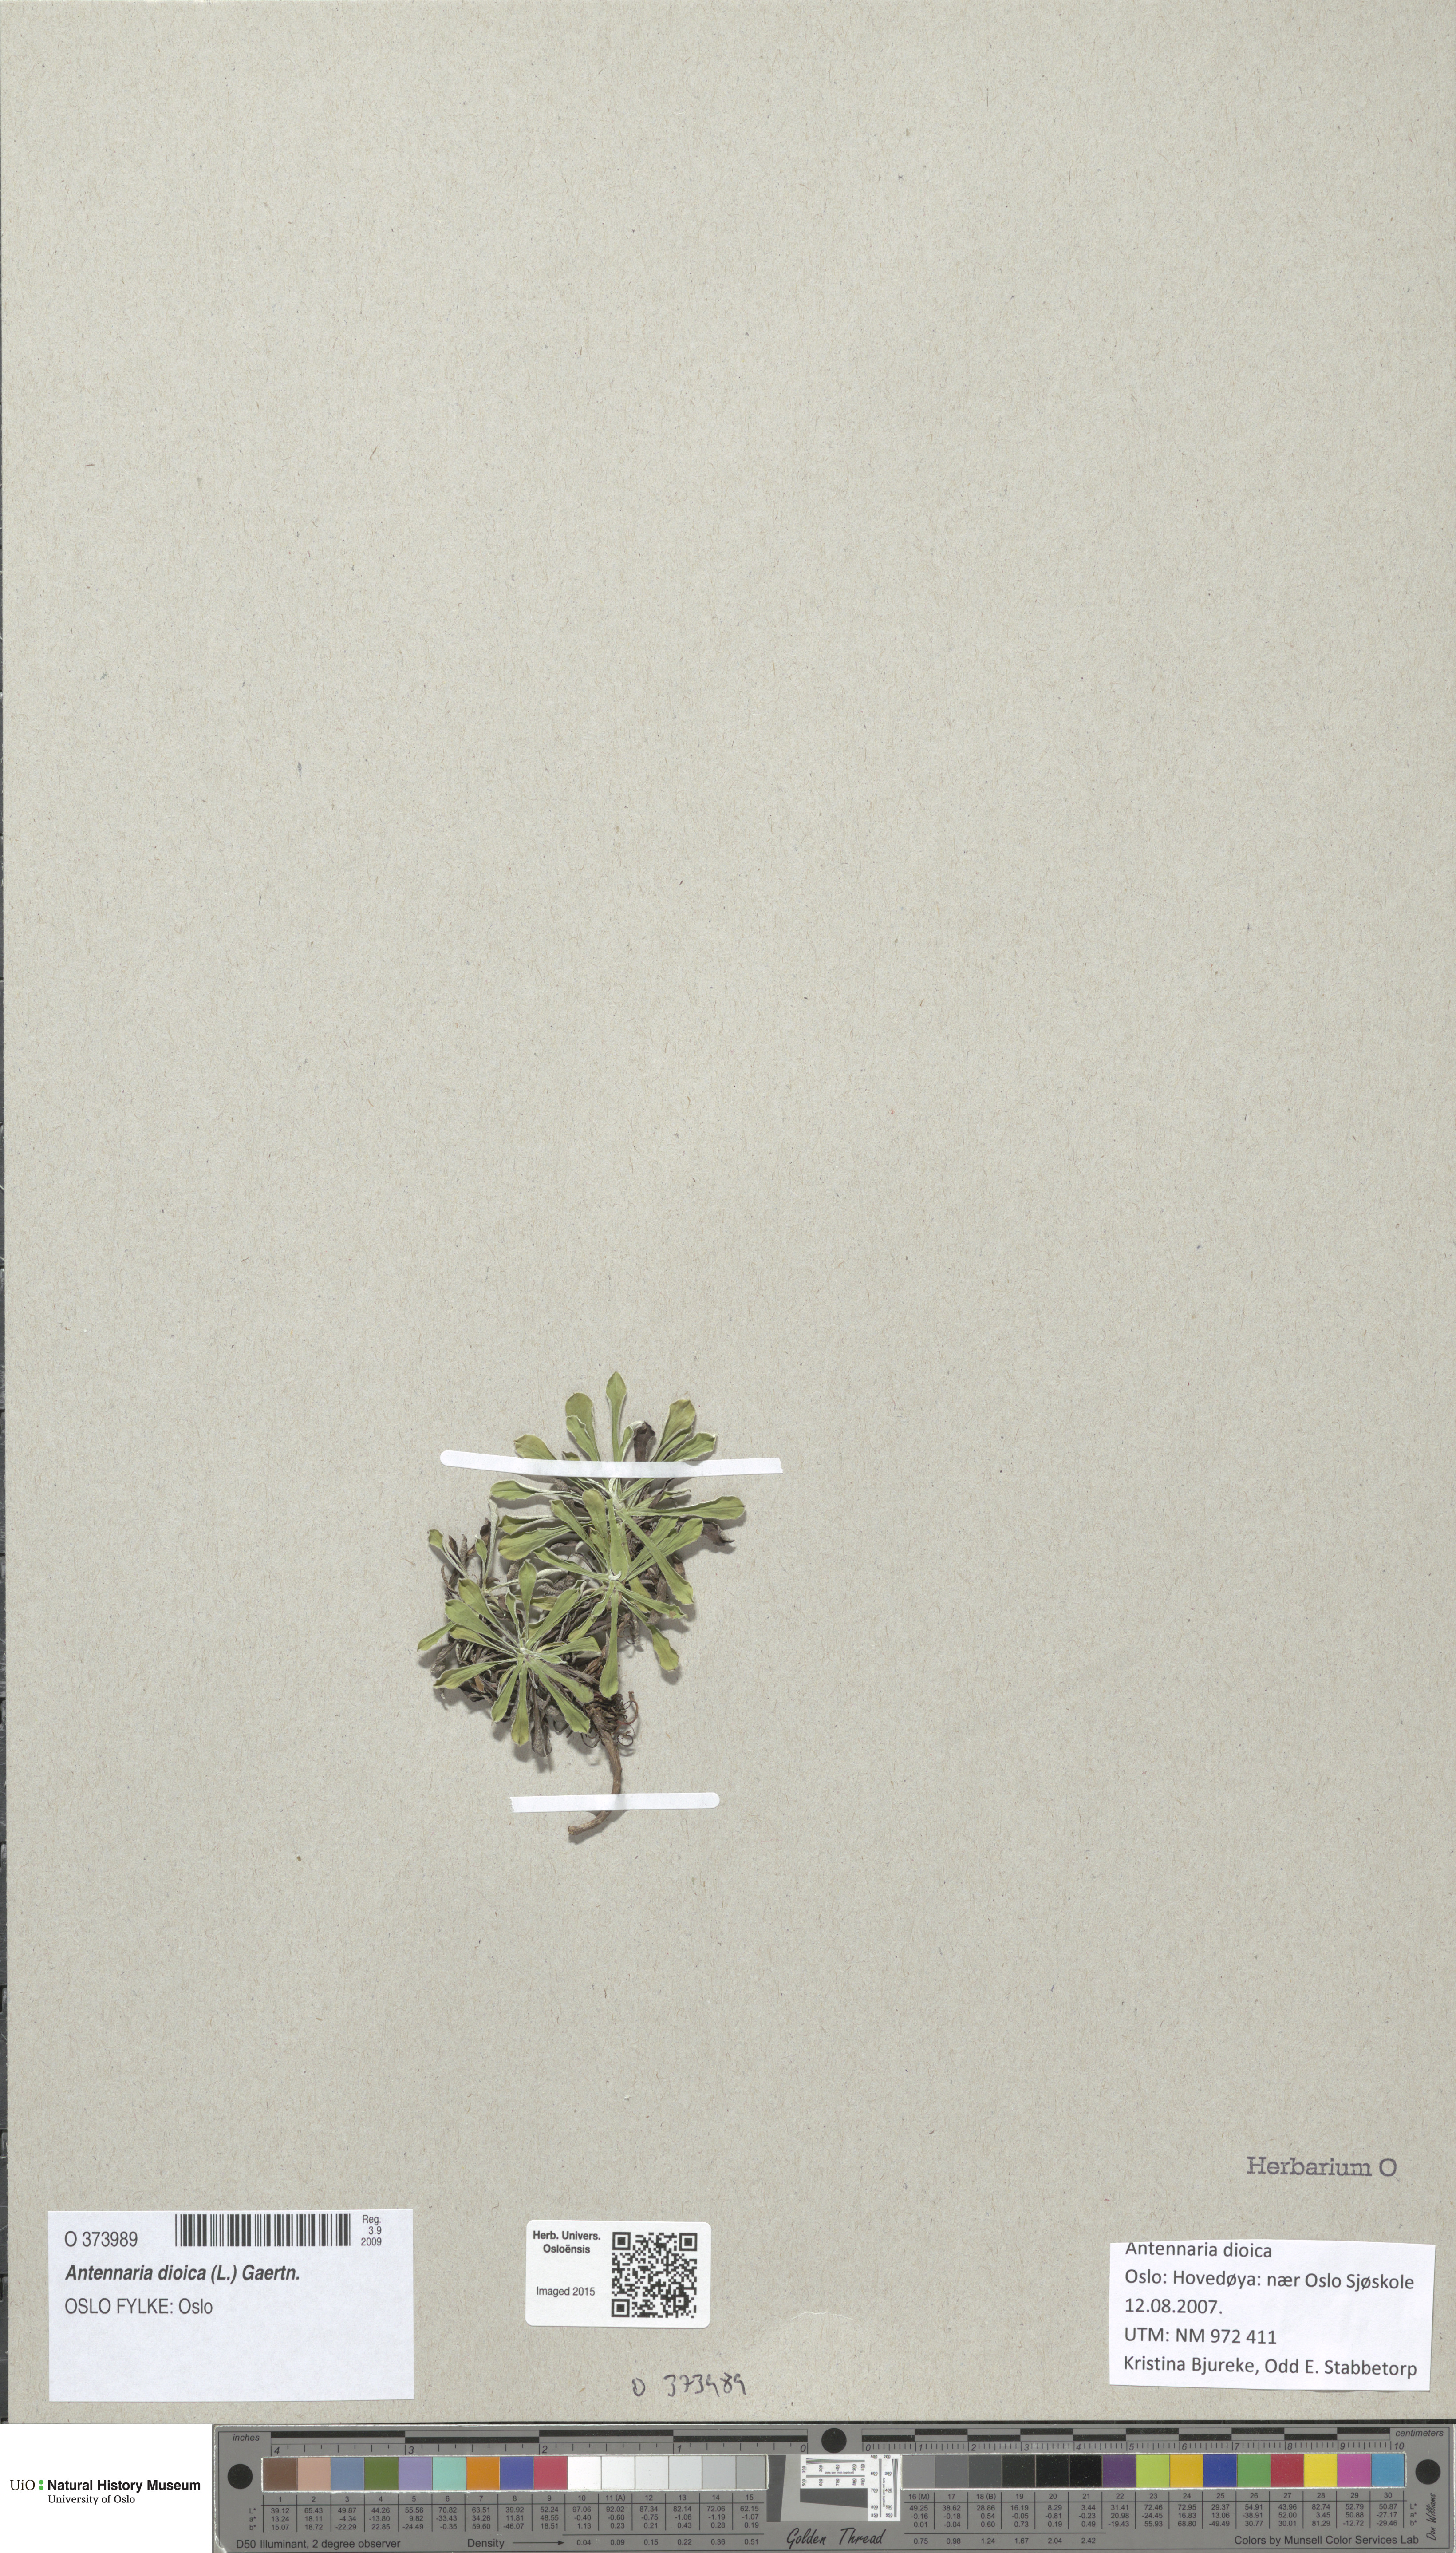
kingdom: Plantae
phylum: Tracheophyta
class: Magnoliopsida
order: Asterales
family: Asteraceae
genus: Antennaria
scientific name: Antennaria dioica
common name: Mountain everlasting
